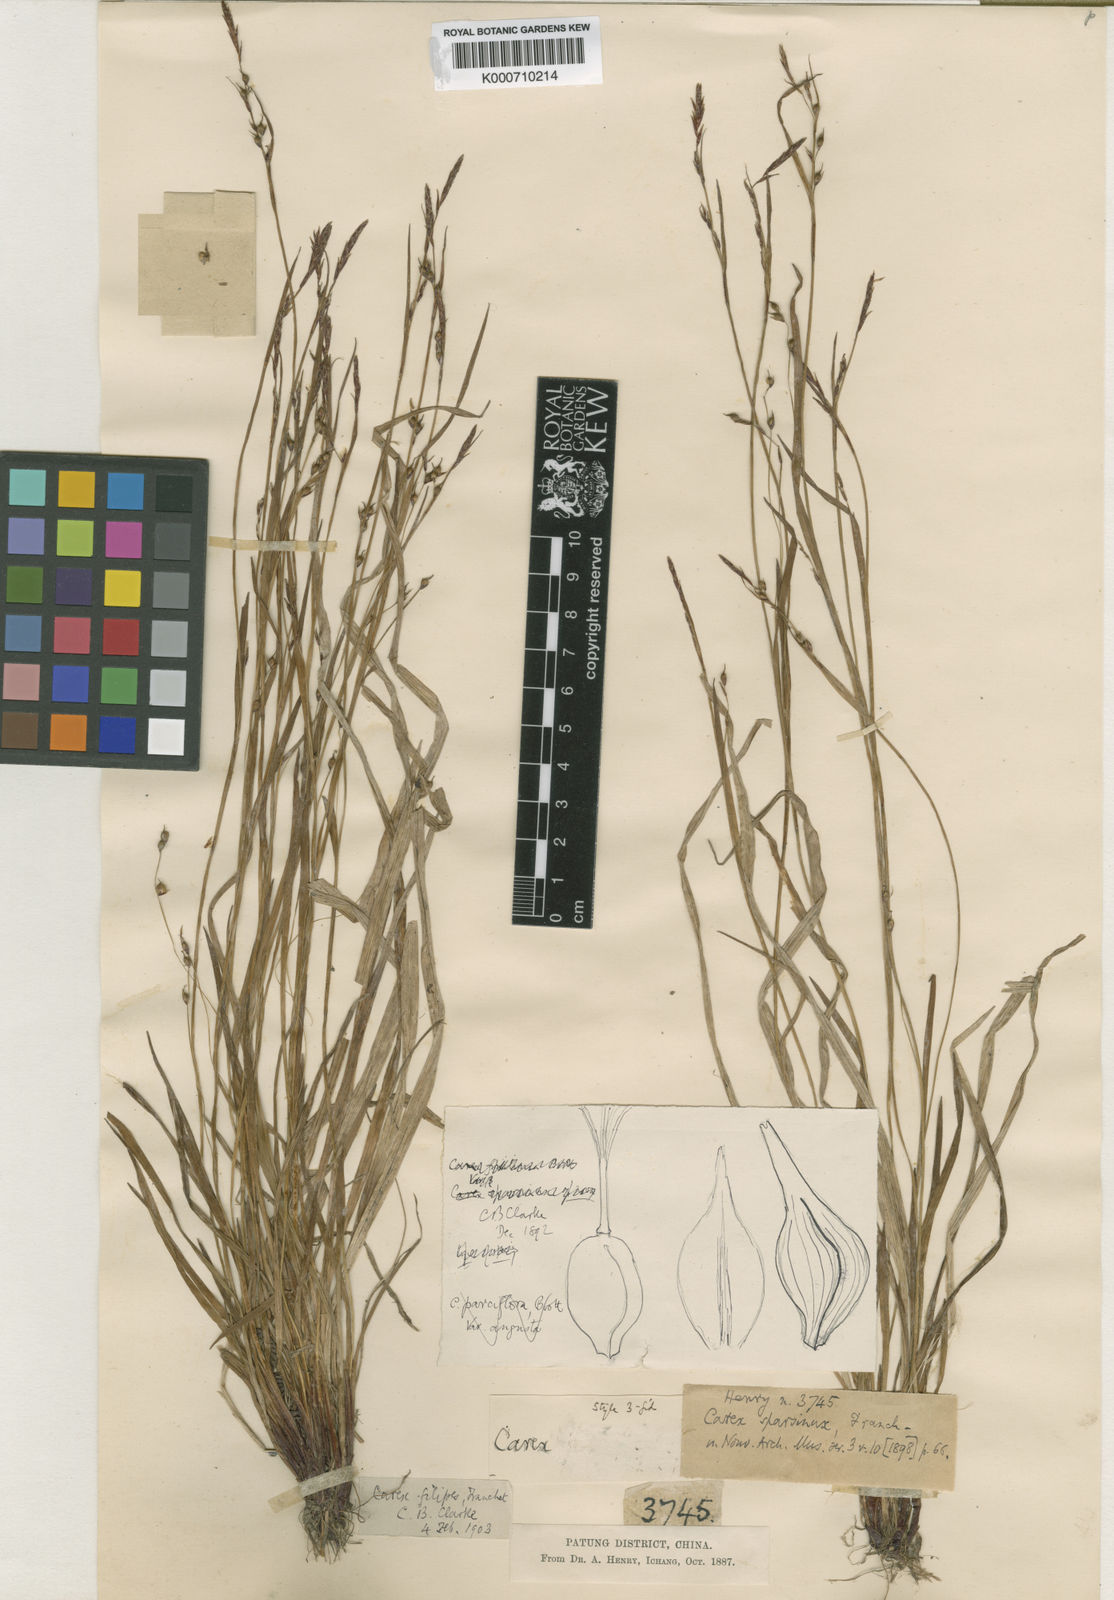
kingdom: Plantae
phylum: Tracheophyta
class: Liliopsida
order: Poales
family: Cyperaceae
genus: Carex
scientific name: Carex filipes
